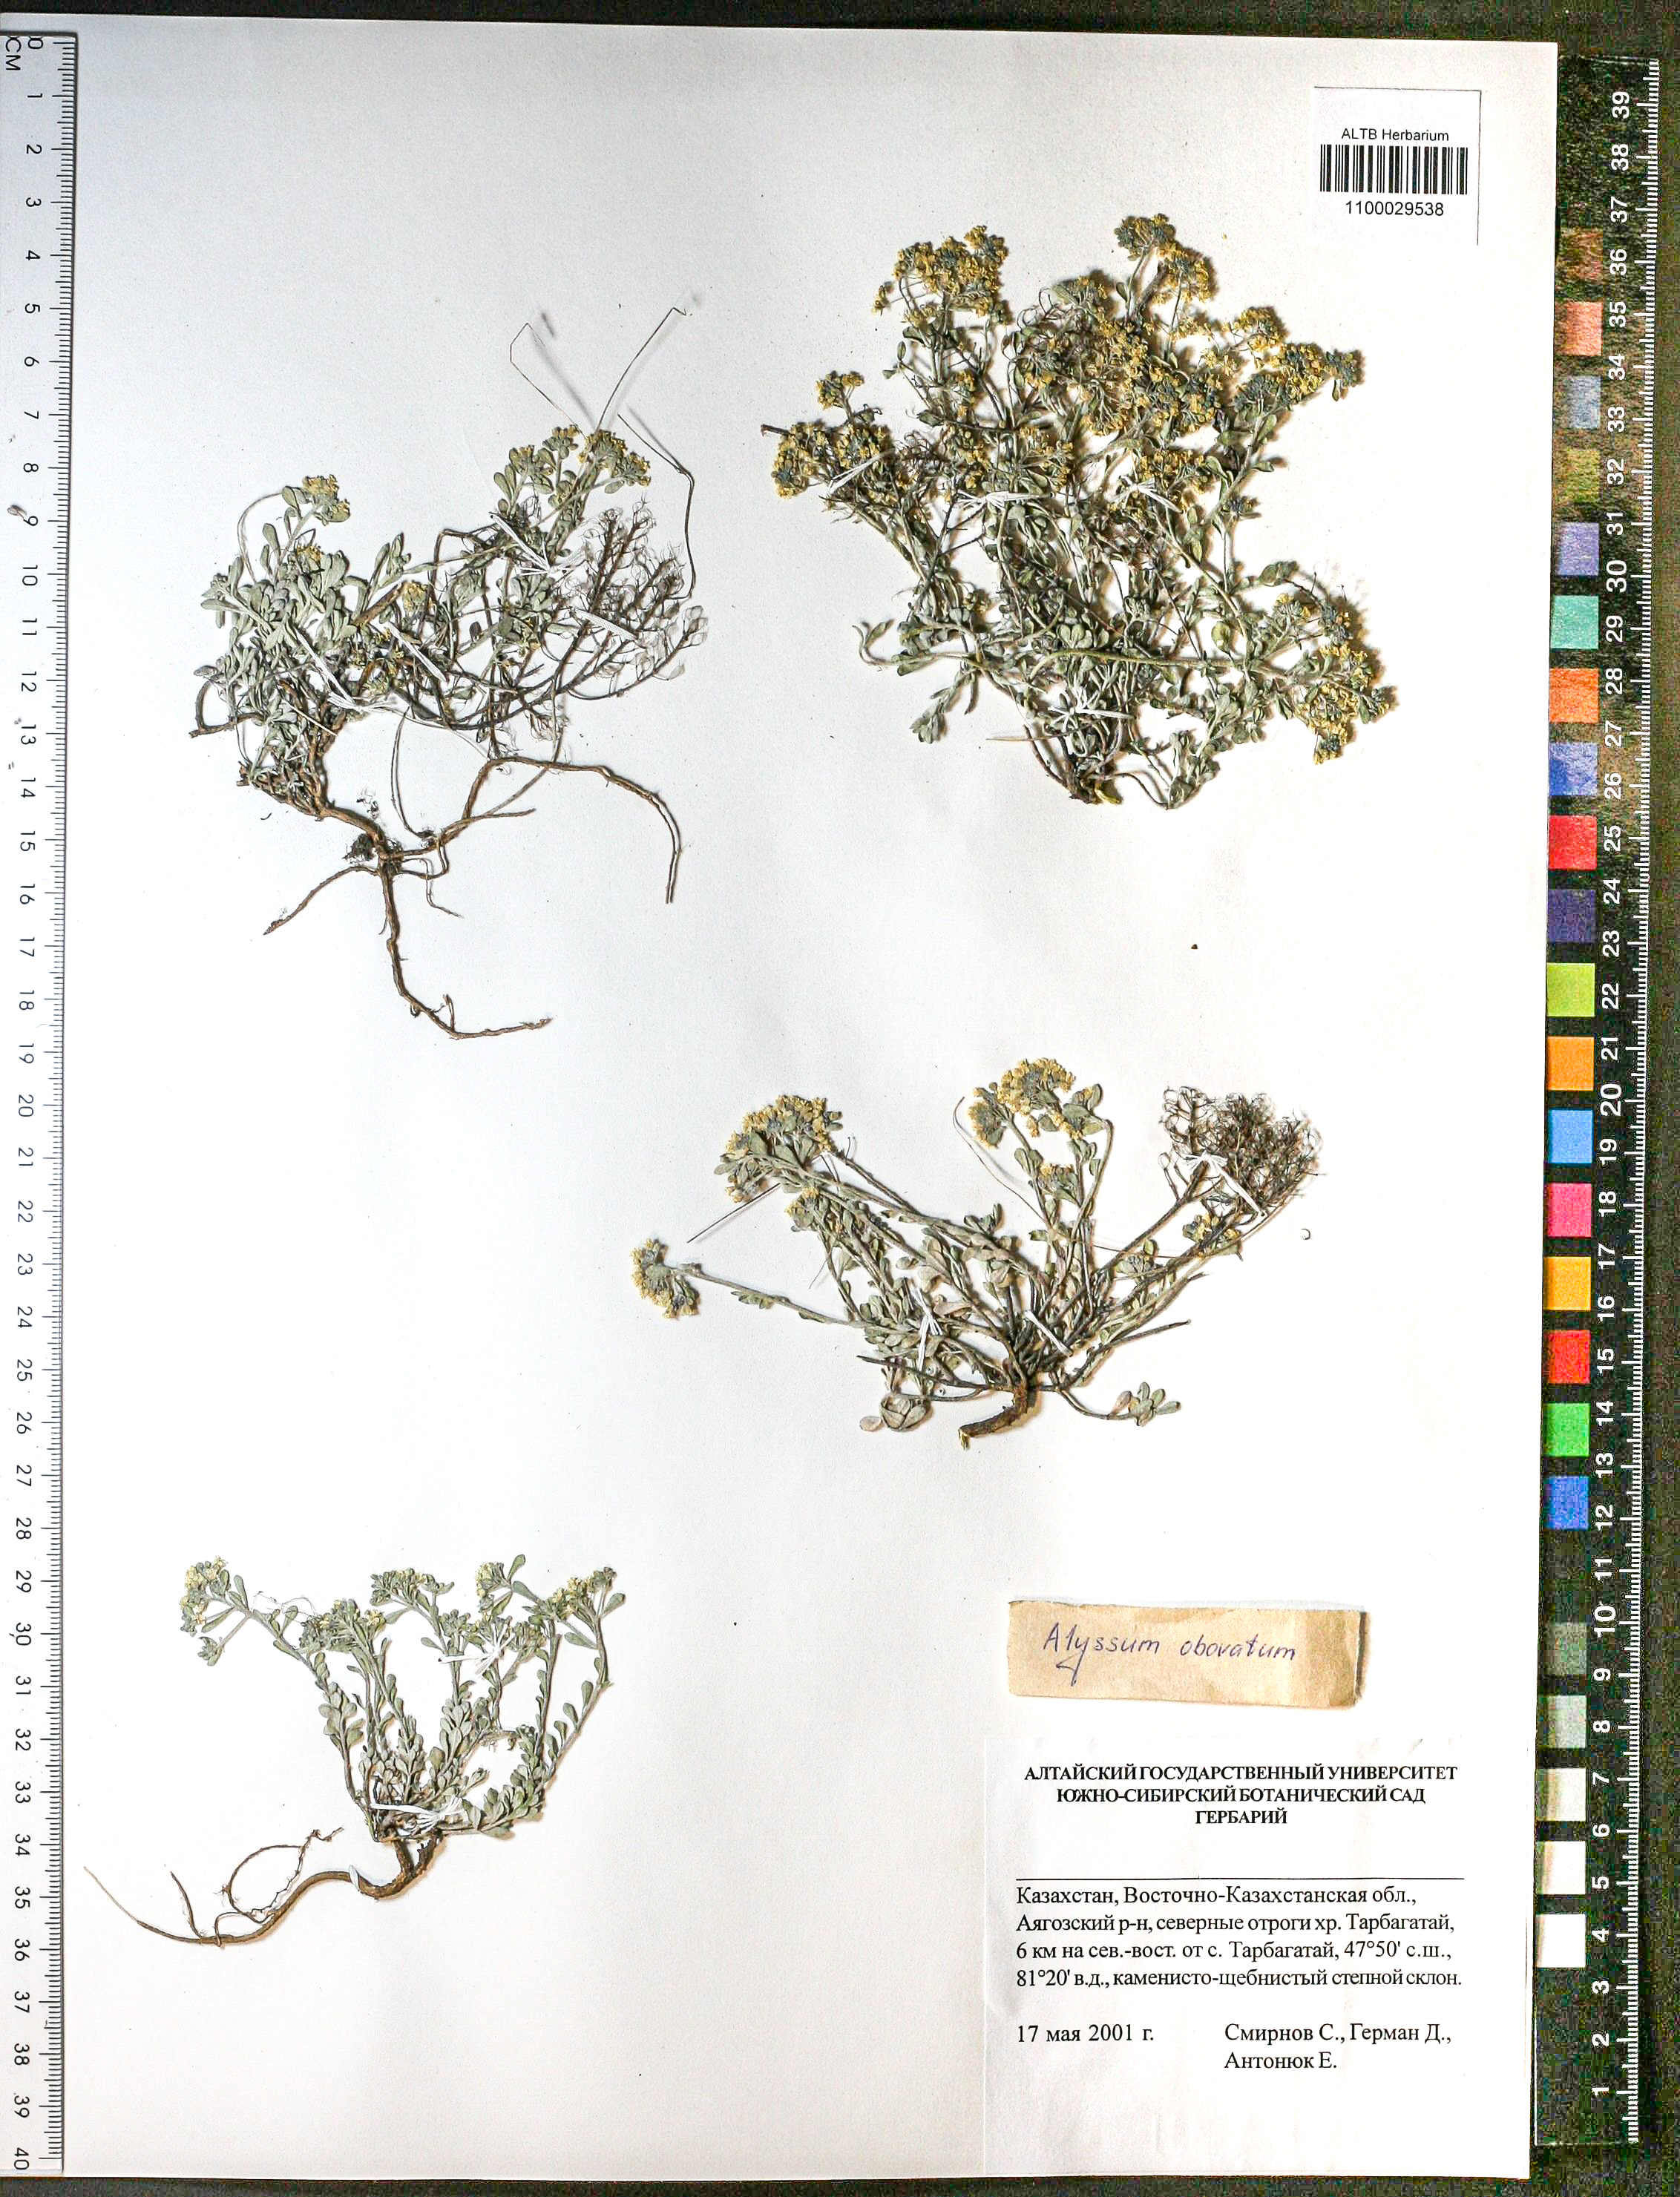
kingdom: Plantae
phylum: Tracheophyta
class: Magnoliopsida
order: Brassicales
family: Brassicaceae
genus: Odontarrhena
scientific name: Odontarrhena obovata
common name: American alyssum
